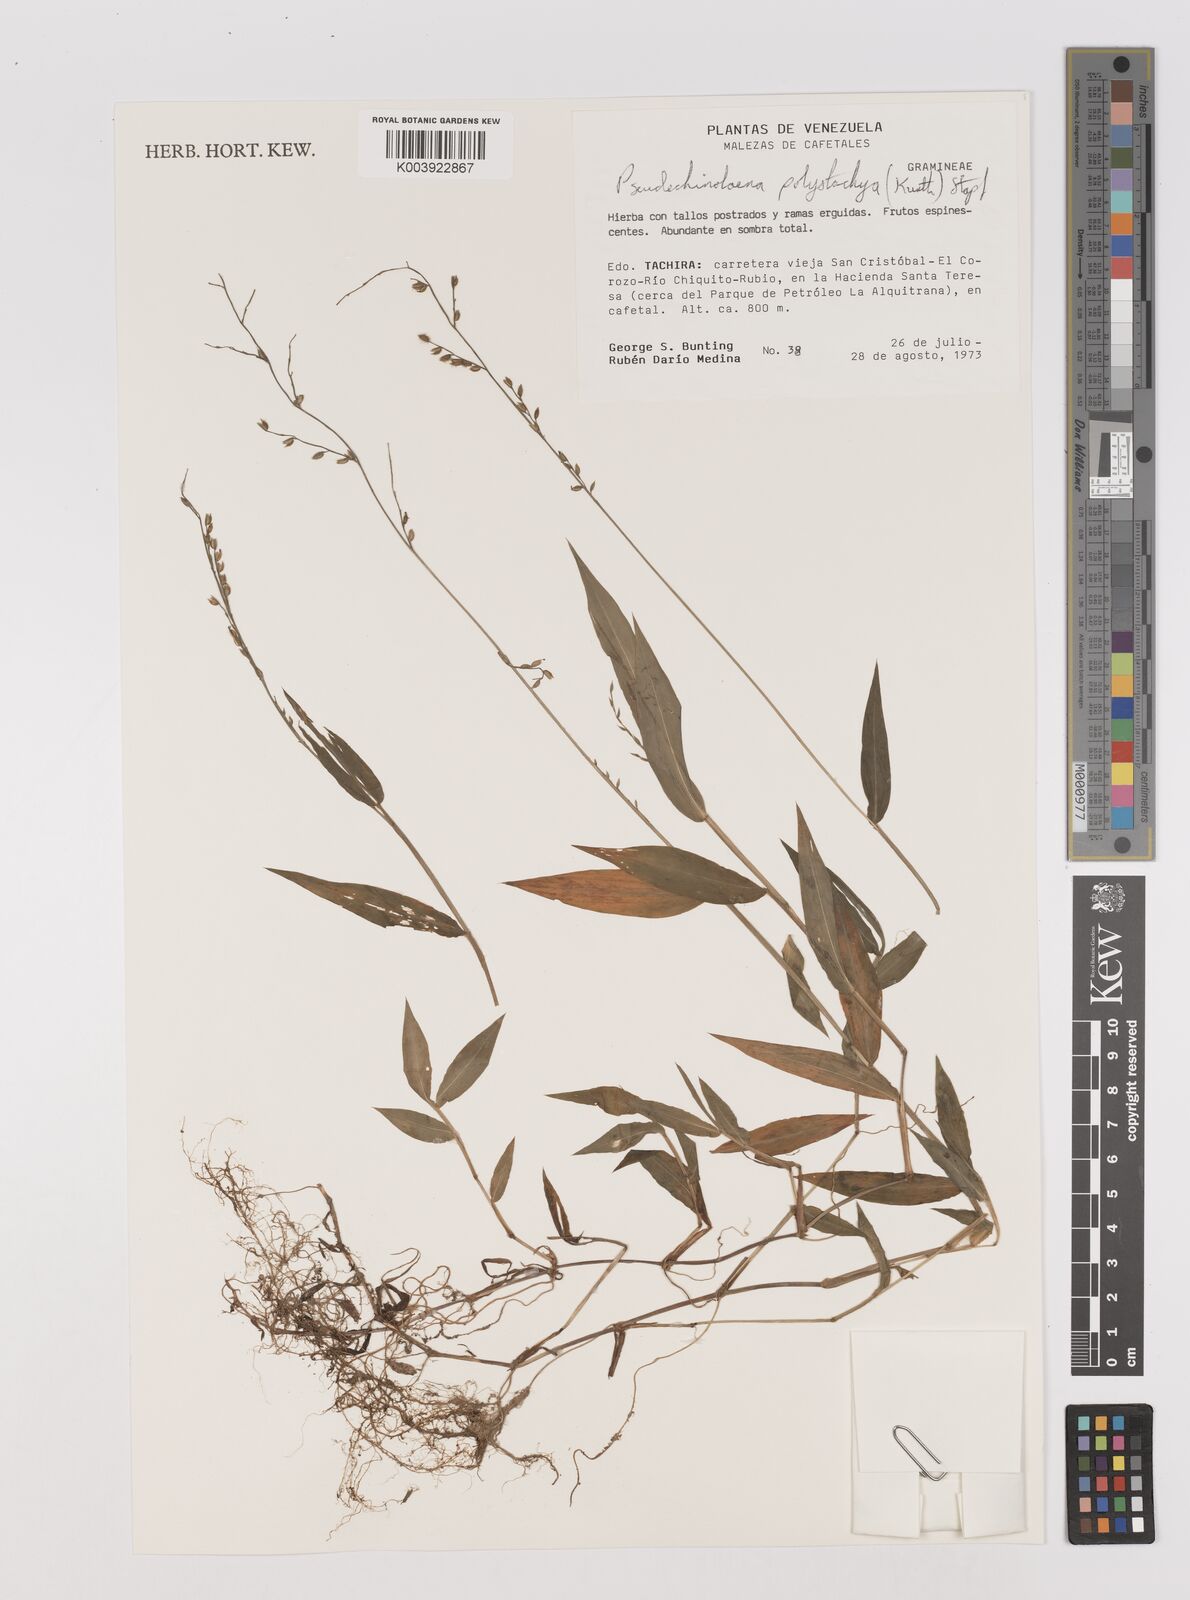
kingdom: Plantae
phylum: Tracheophyta
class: Liliopsida
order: Poales
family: Poaceae
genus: Pseudechinolaena
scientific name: Pseudechinolaena polystachya
